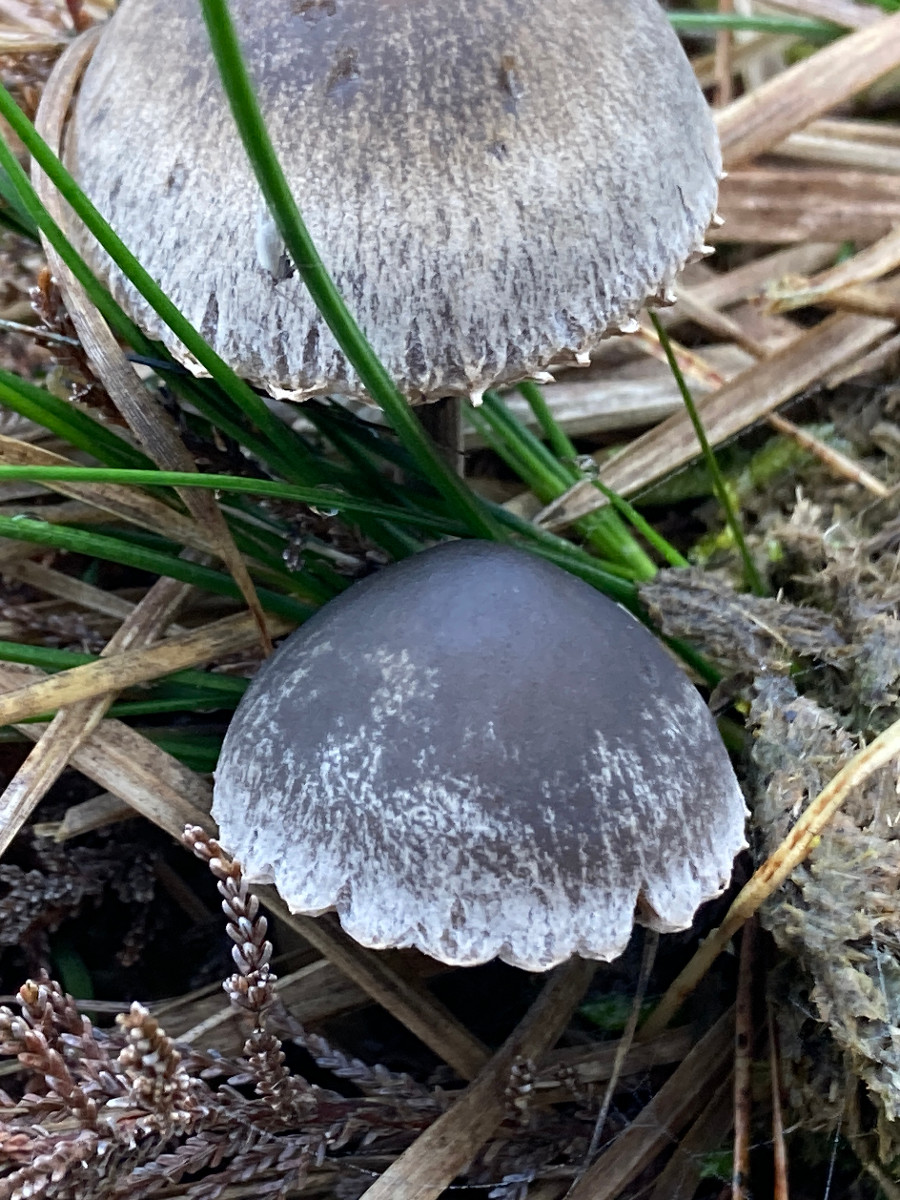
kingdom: Fungi
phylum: Basidiomycota
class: Agaricomycetes
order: Agaricales
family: Bolbitiaceae
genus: Panaeolus
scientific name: Panaeolus papilionaceus
